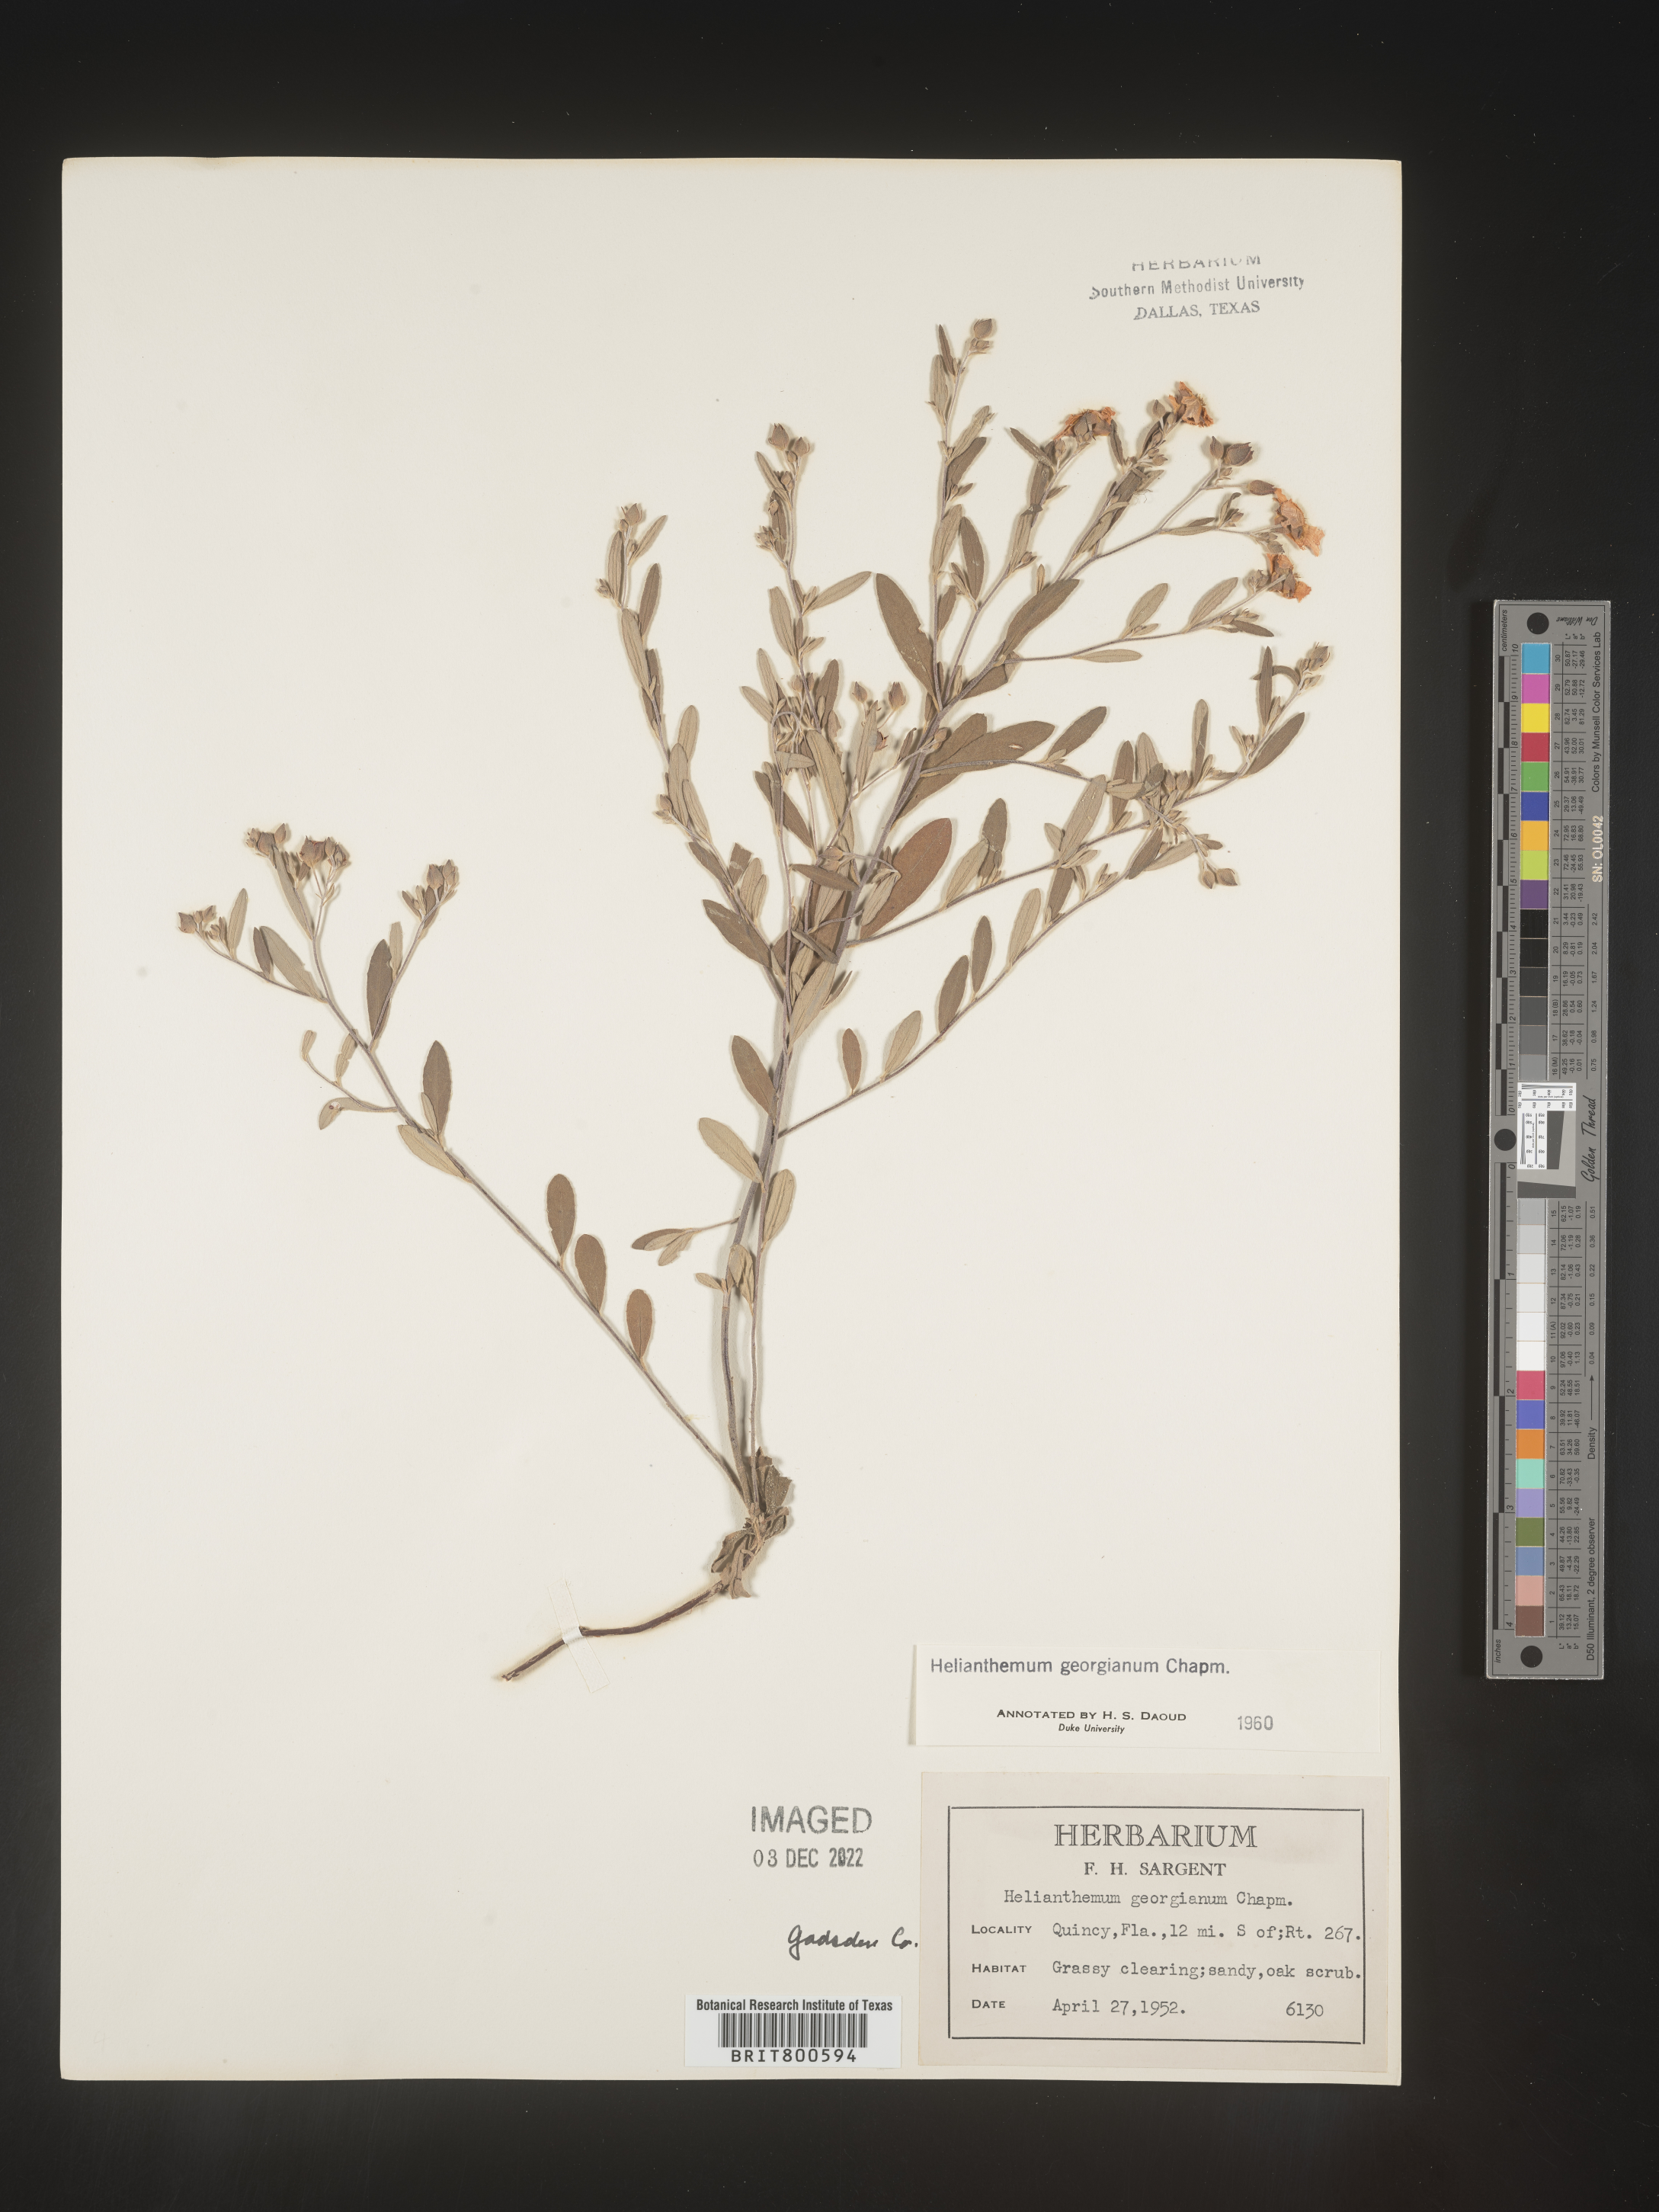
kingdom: Plantae
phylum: Tracheophyta
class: Magnoliopsida
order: Malvales
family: Cistaceae
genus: Crocanthemum
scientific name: Crocanthemum georgianum
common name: Georgia frostweed
